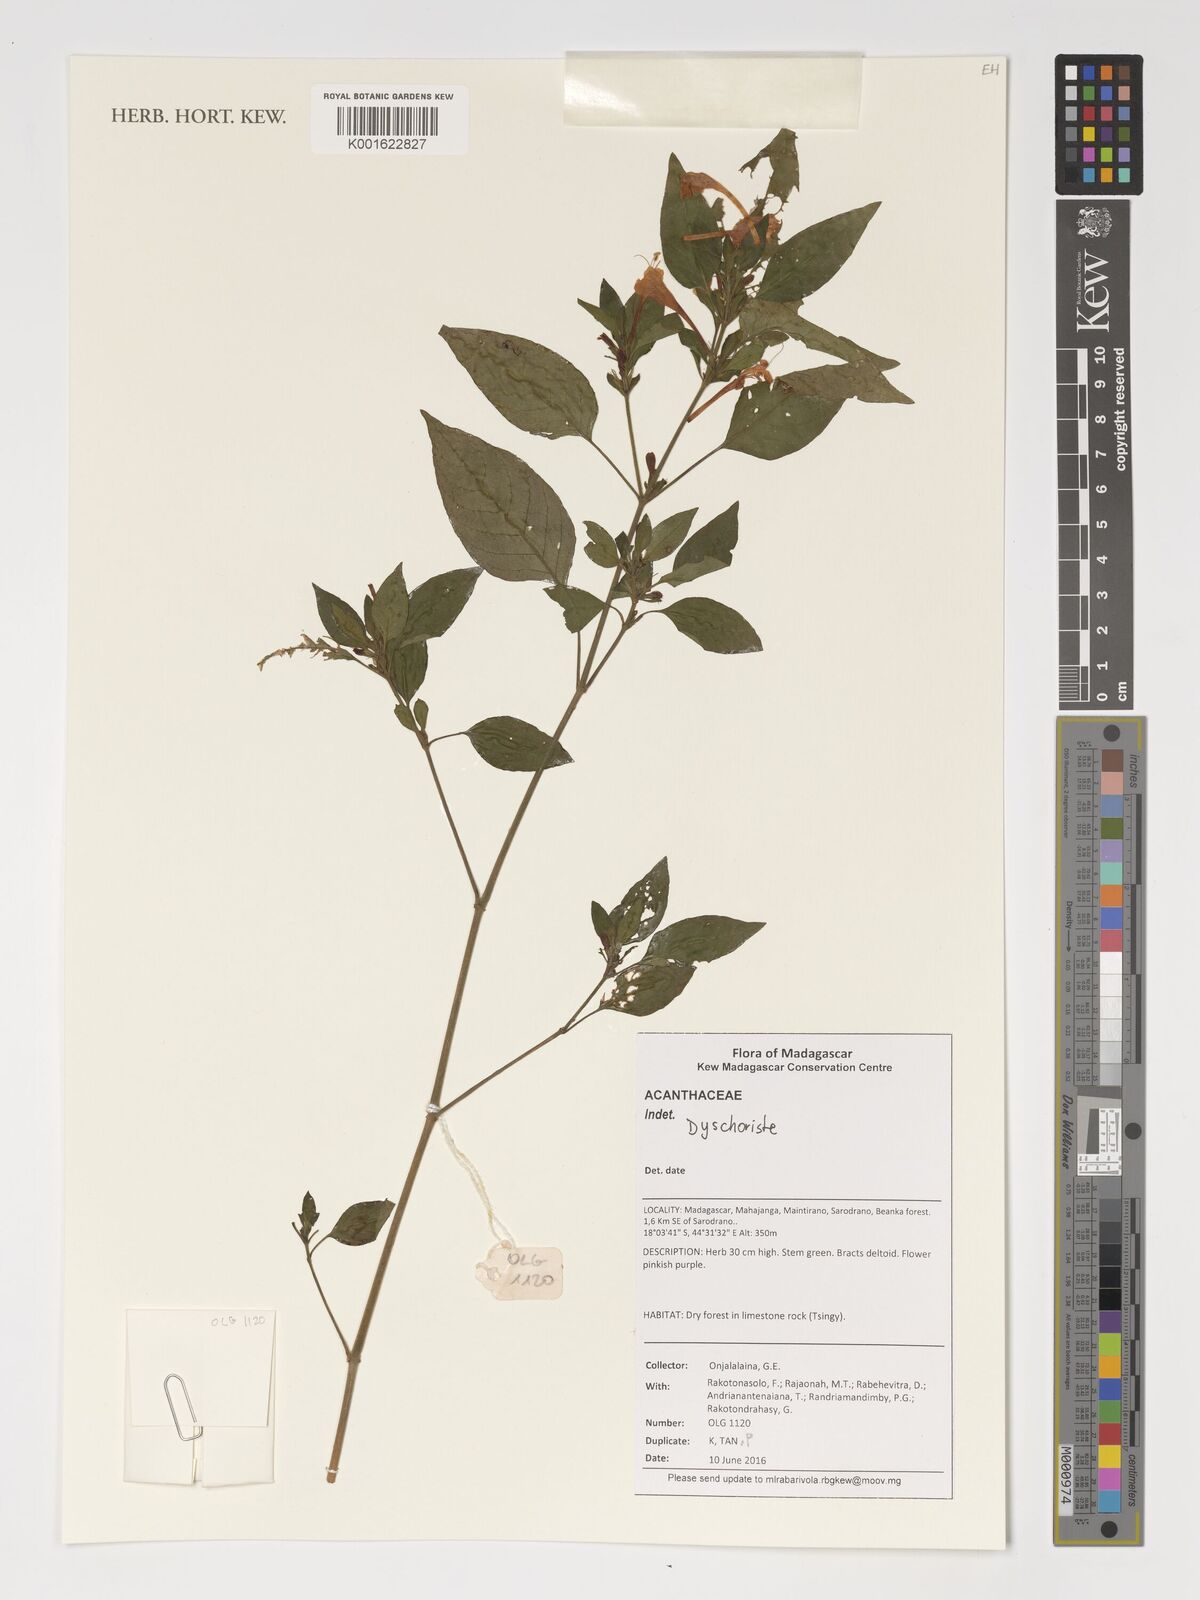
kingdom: Plantae
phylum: Tracheophyta
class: Magnoliopsida
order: Lamiales
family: Acanthaceae
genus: Dyschoriste
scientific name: Dyschoriste
